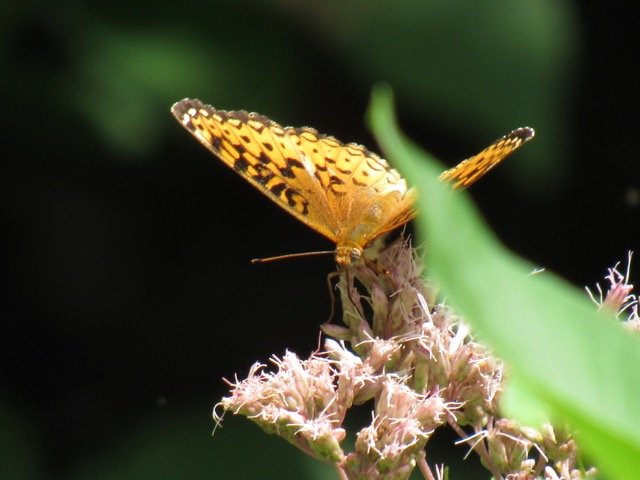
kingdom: Animalia
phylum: Arthropoda
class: Insecta
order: Lepidoptera
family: Nymphalidae
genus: Speyeria
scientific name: Speyeria atlantis
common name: Atlantis Fritillary
